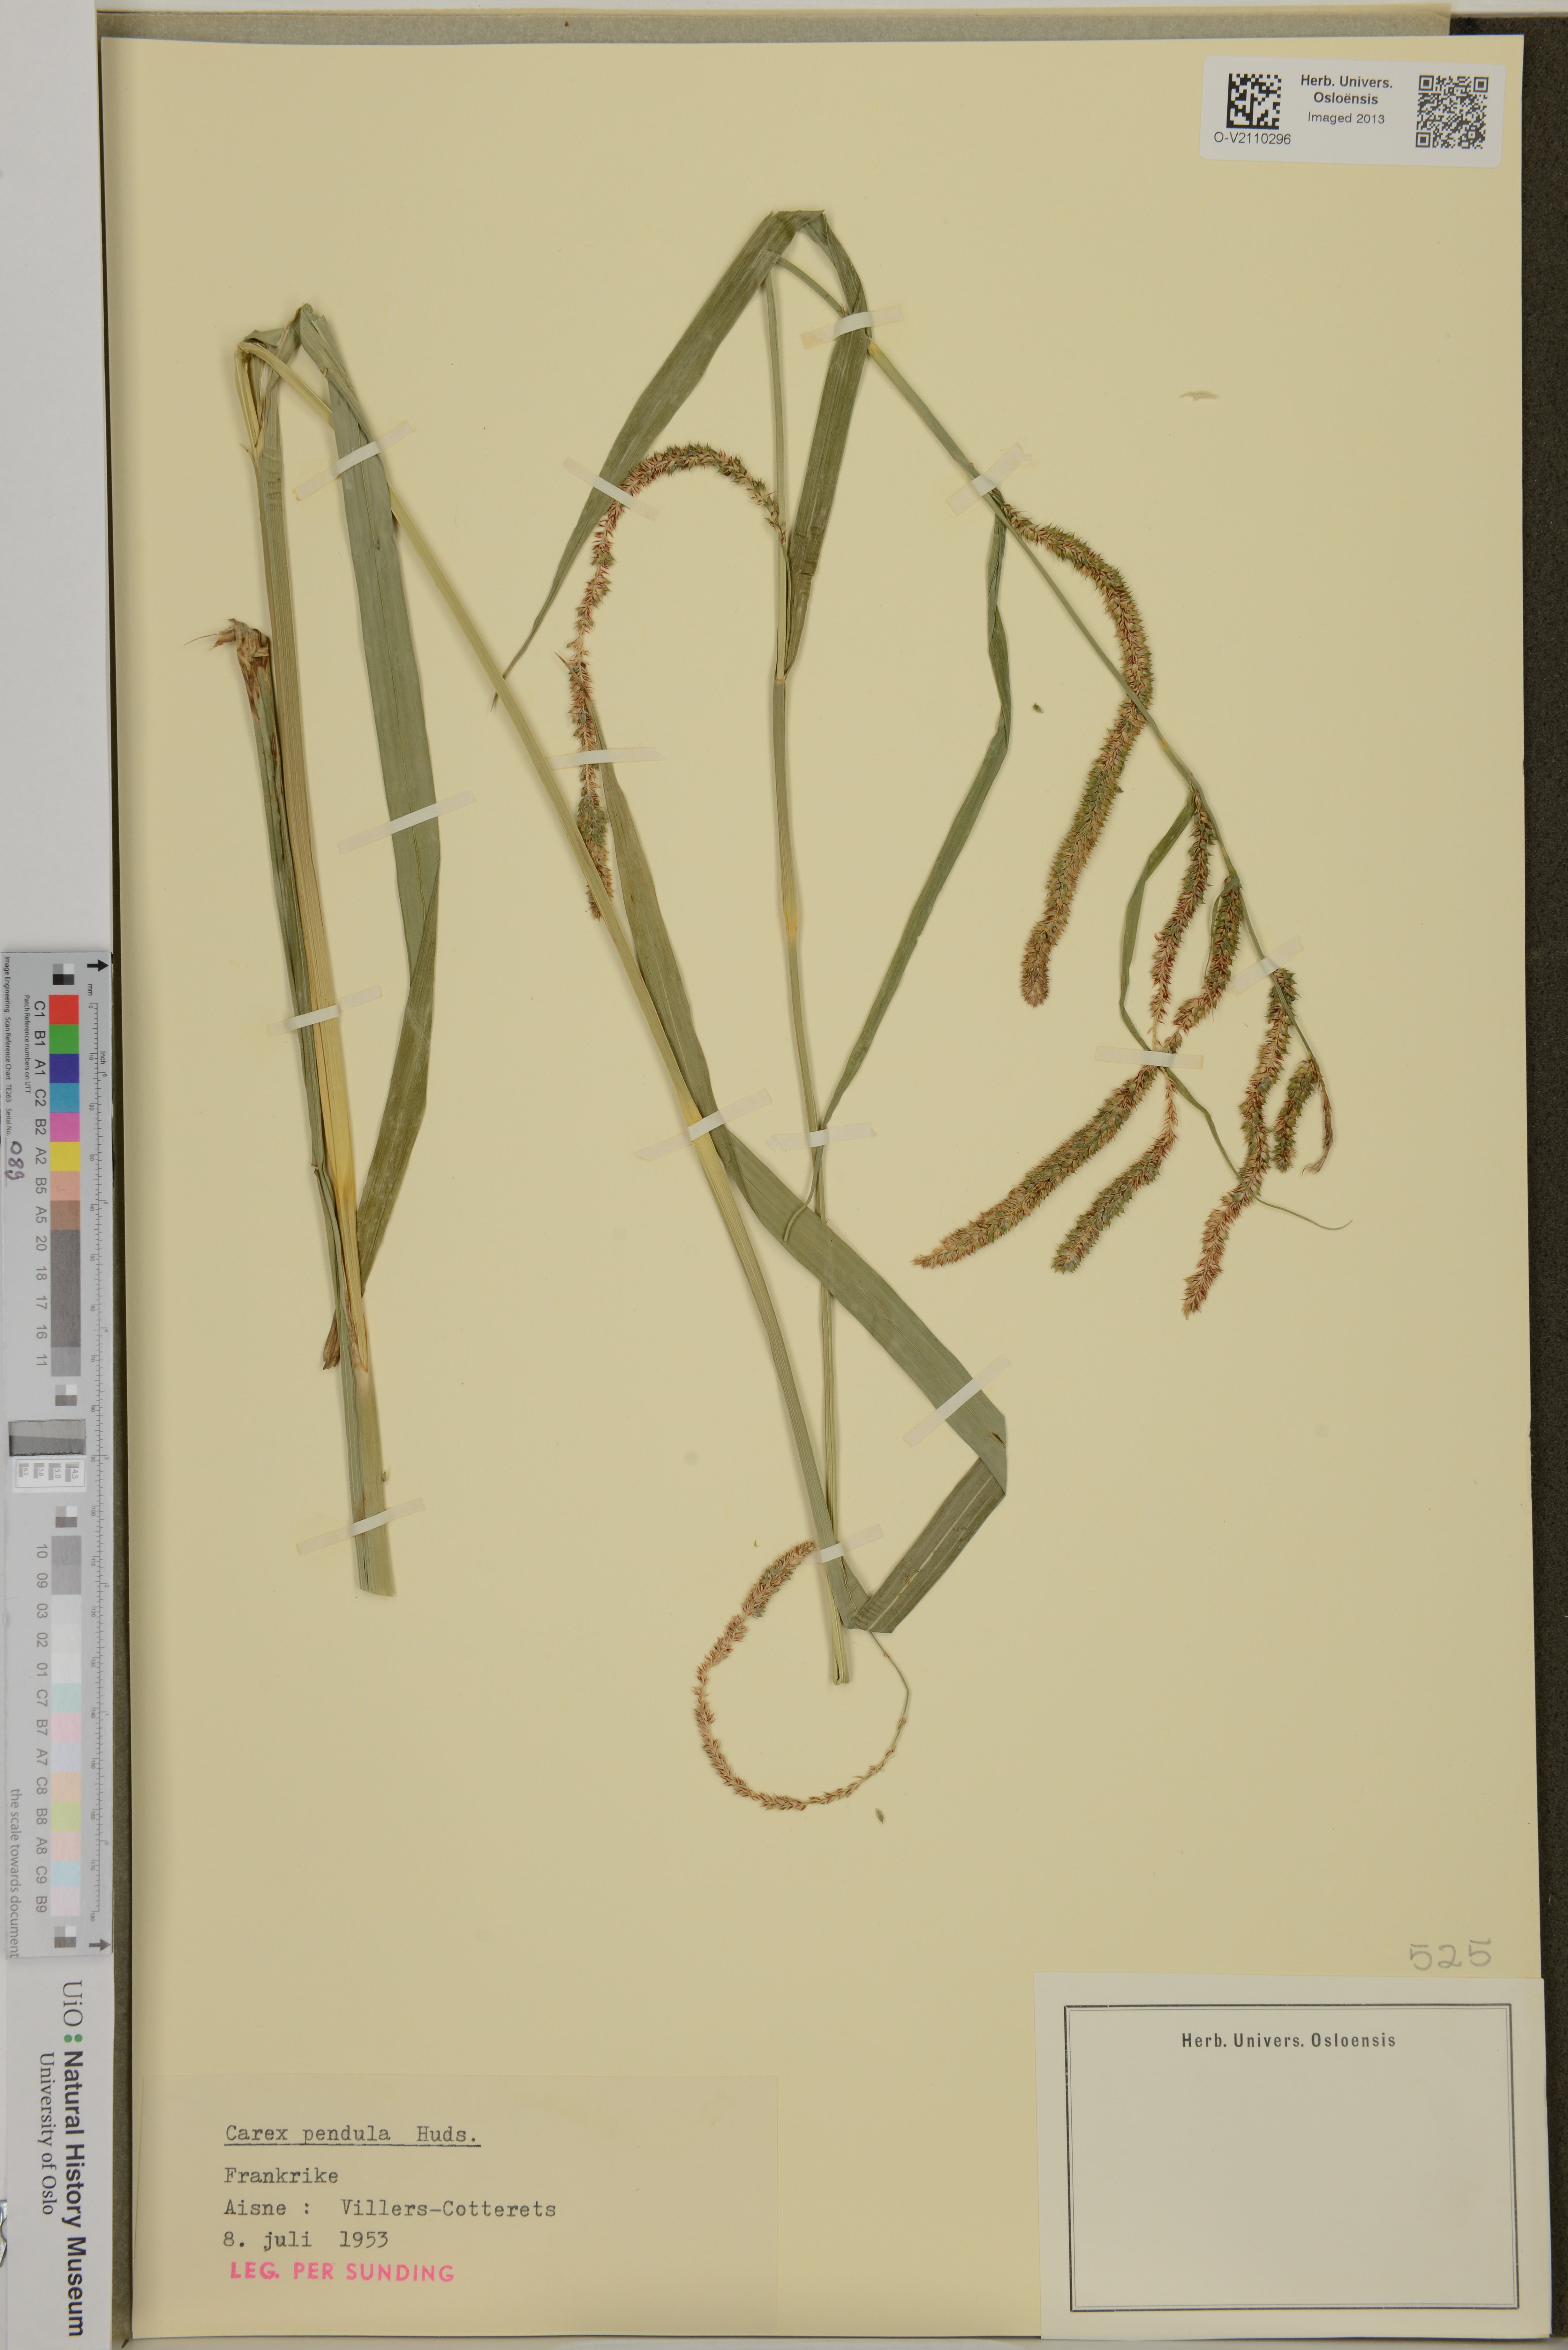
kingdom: Plantae
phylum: Tracheophyta
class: Liliopsida
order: Poales
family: Cyperaceae
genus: Carex
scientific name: Carex pendula
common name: Pendulous sedge
